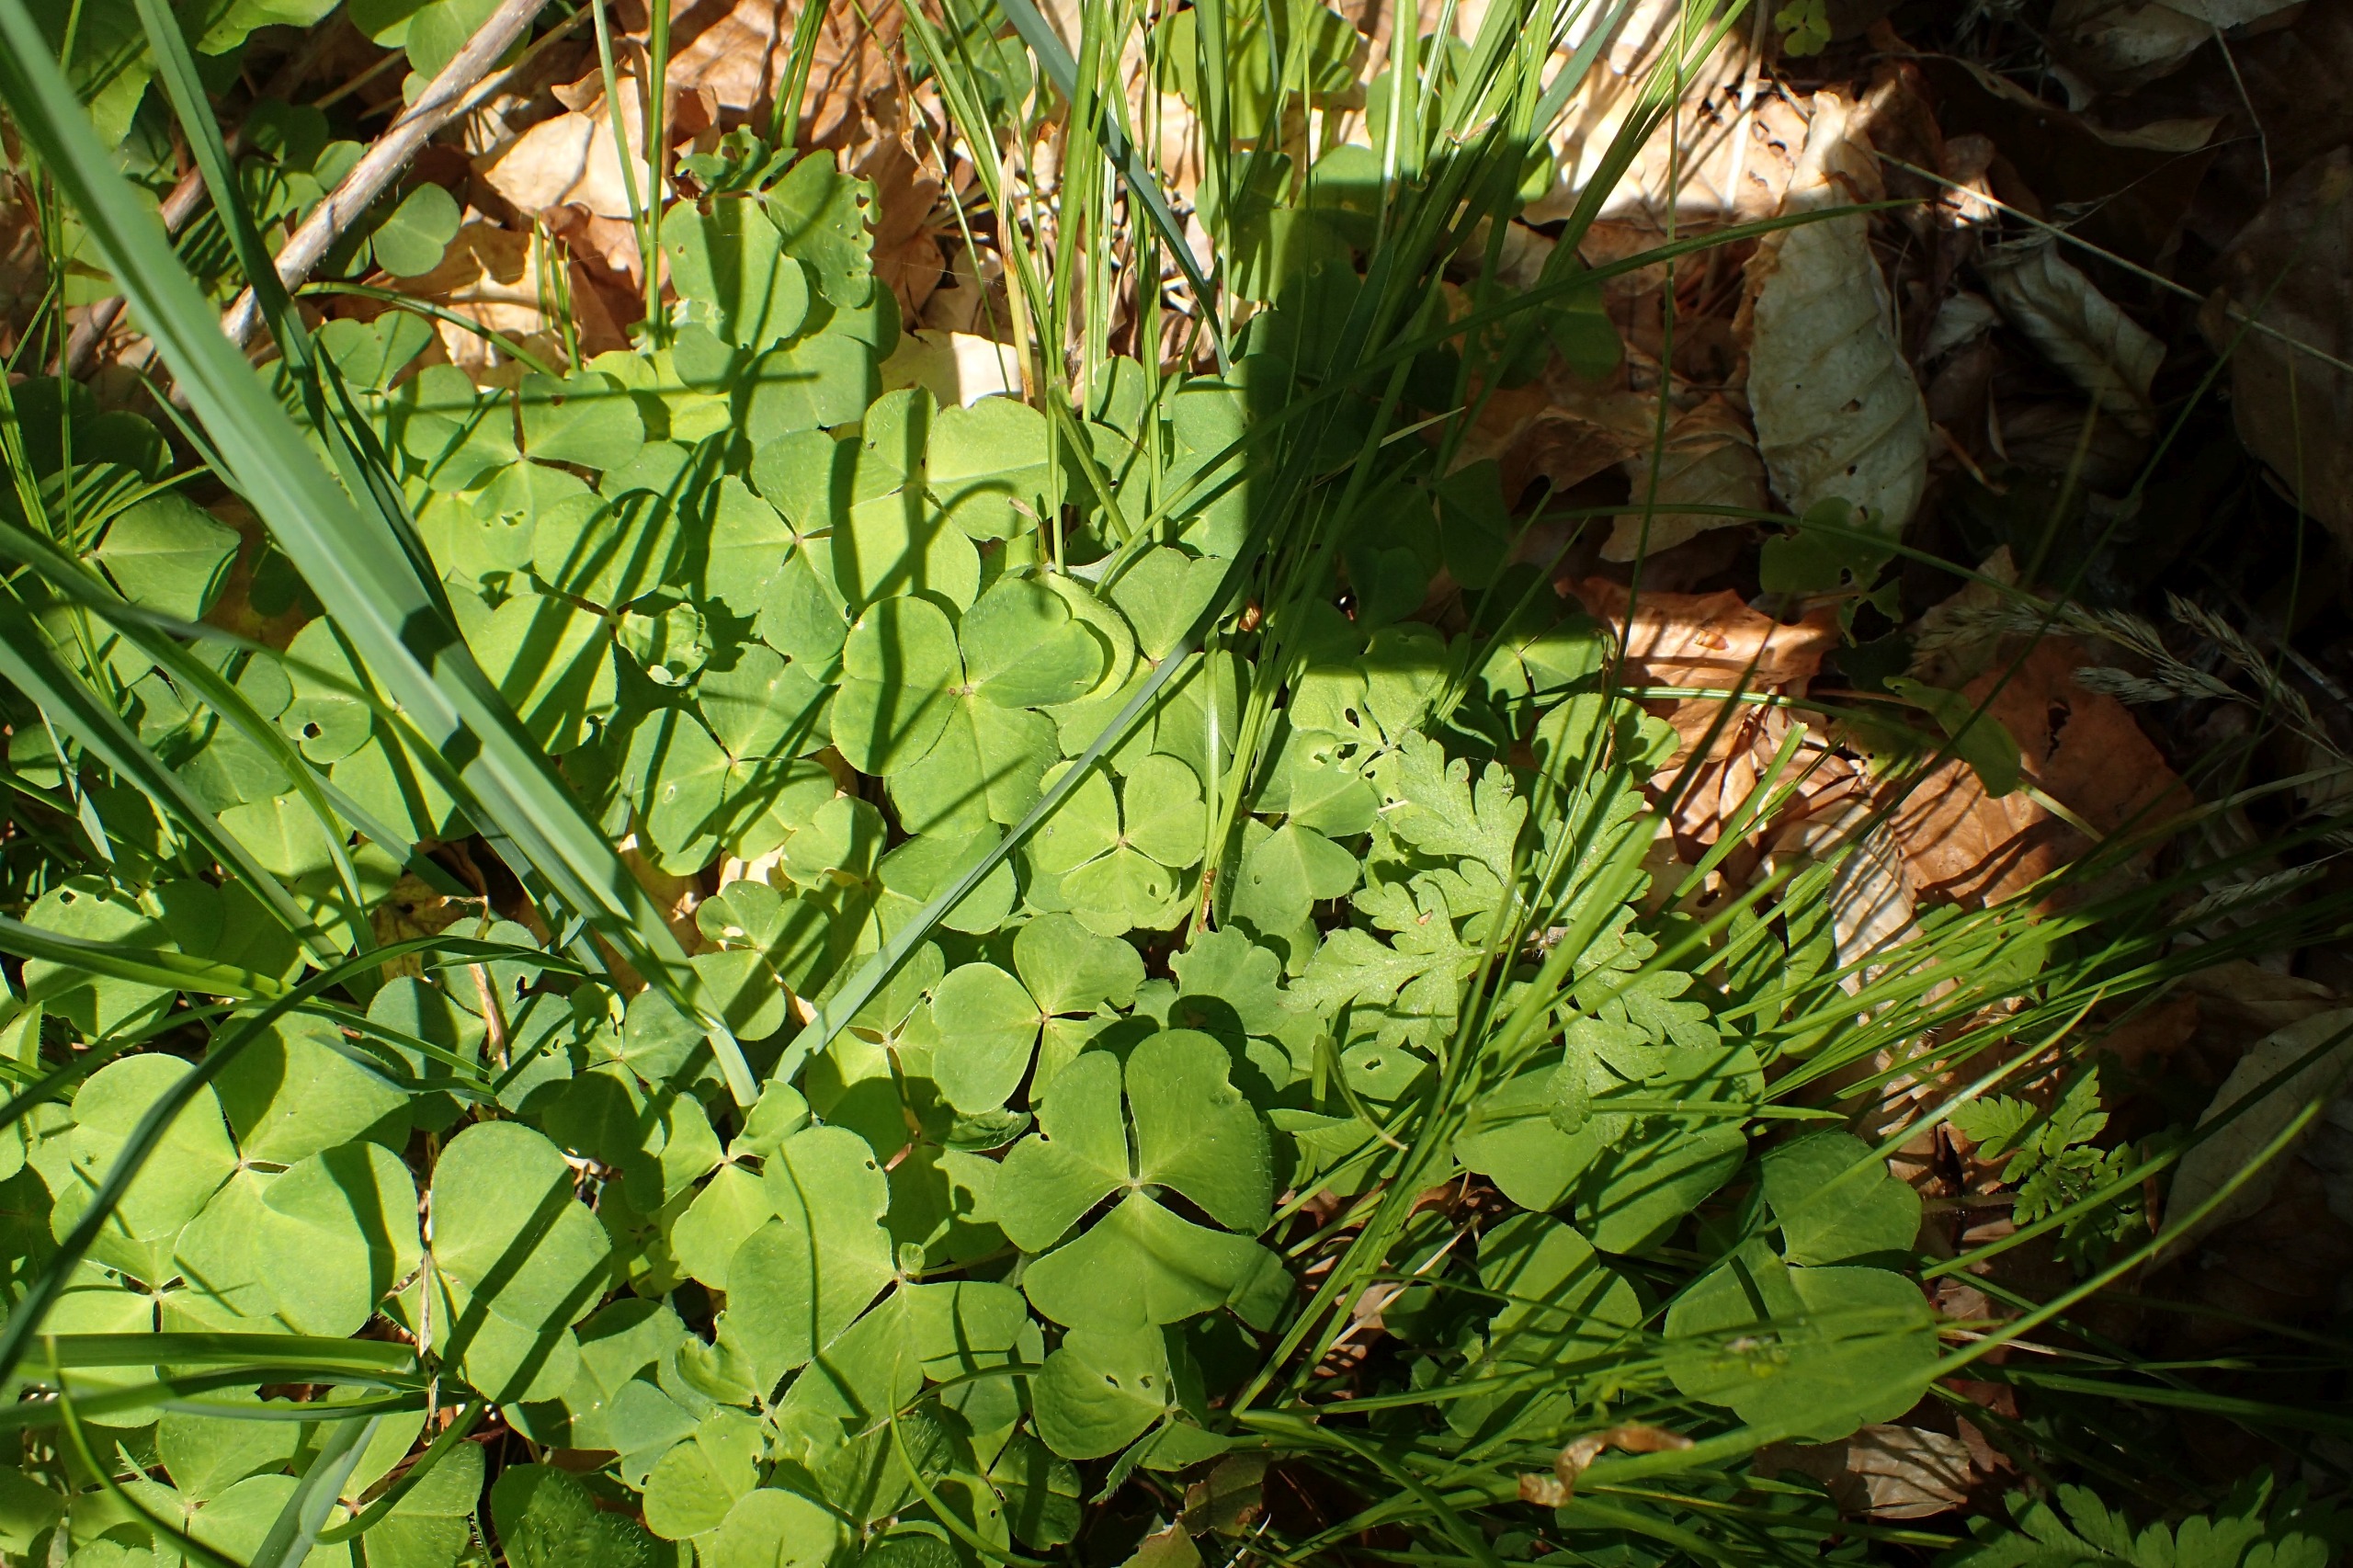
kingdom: Plantae
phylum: Tracheophyta
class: Magnoliopsida
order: Oxalidales
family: Oxalidaceae
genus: Oxalis
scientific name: Oxalis acetosella
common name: Skovsyre
